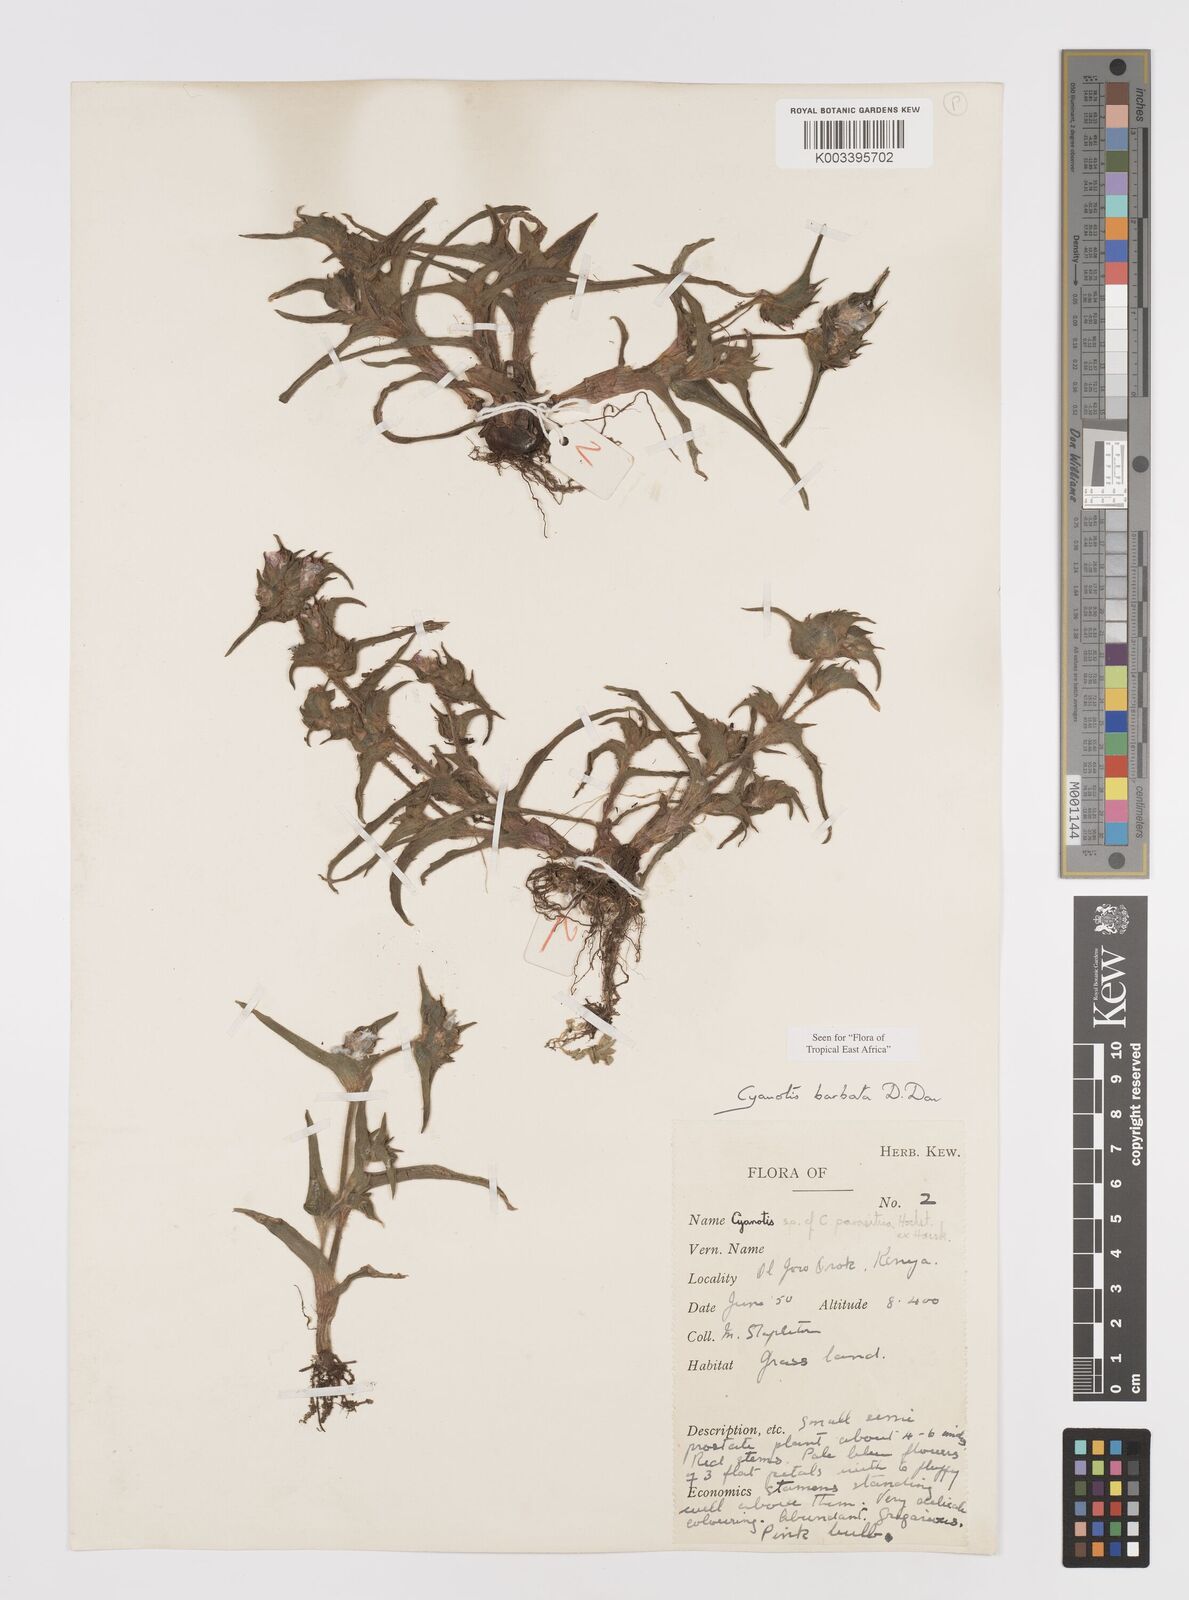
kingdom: Plantae
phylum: Tracheophyta
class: Liliopsida
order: Commelinales
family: Commelinaceae
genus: Cyanotis
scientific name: Cyanotis vaga
